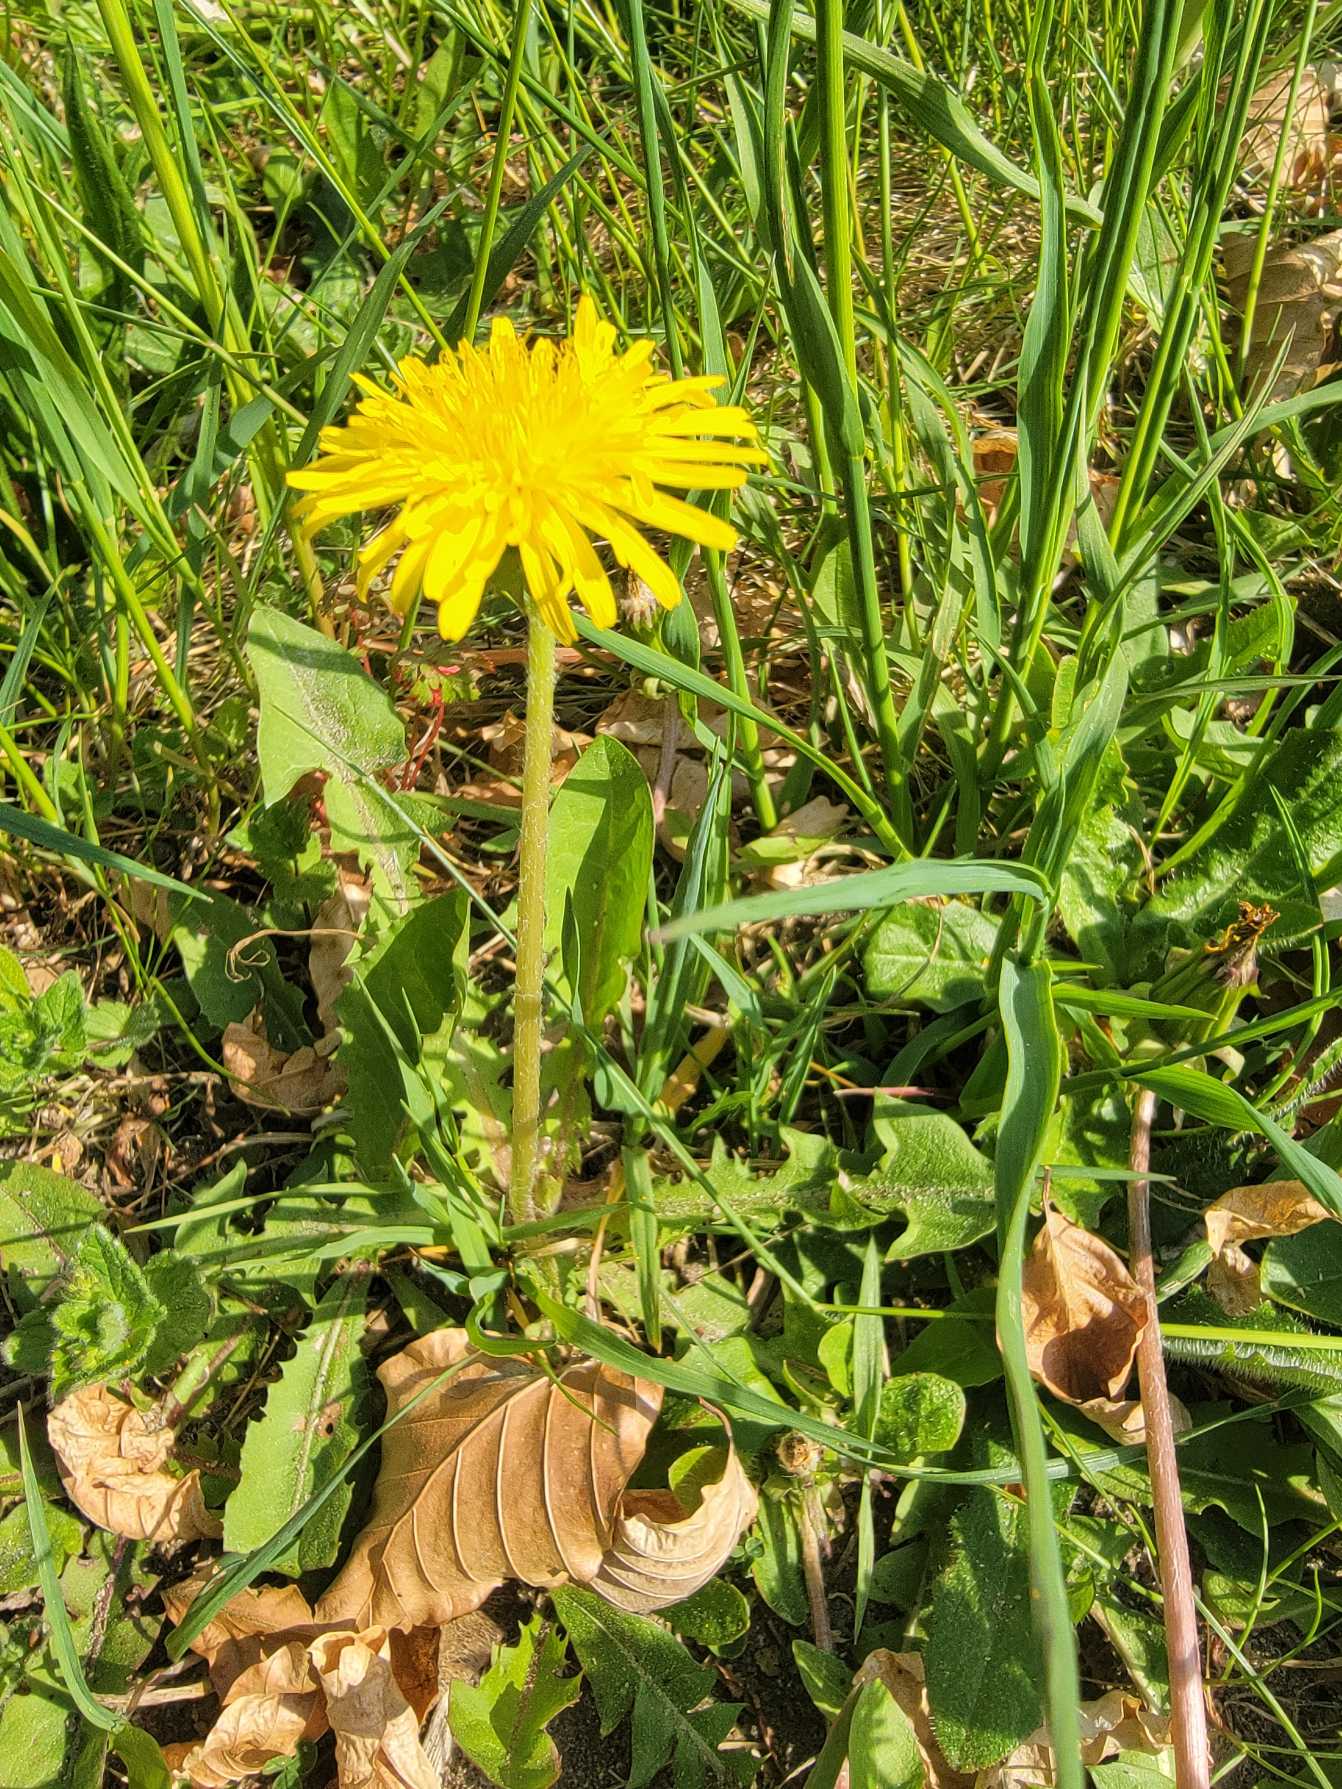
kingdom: Plantae
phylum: Tracheophyta
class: Magnoliopsida
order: Asterales
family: Asteraceae
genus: Taraxacum
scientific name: Taraxacum
